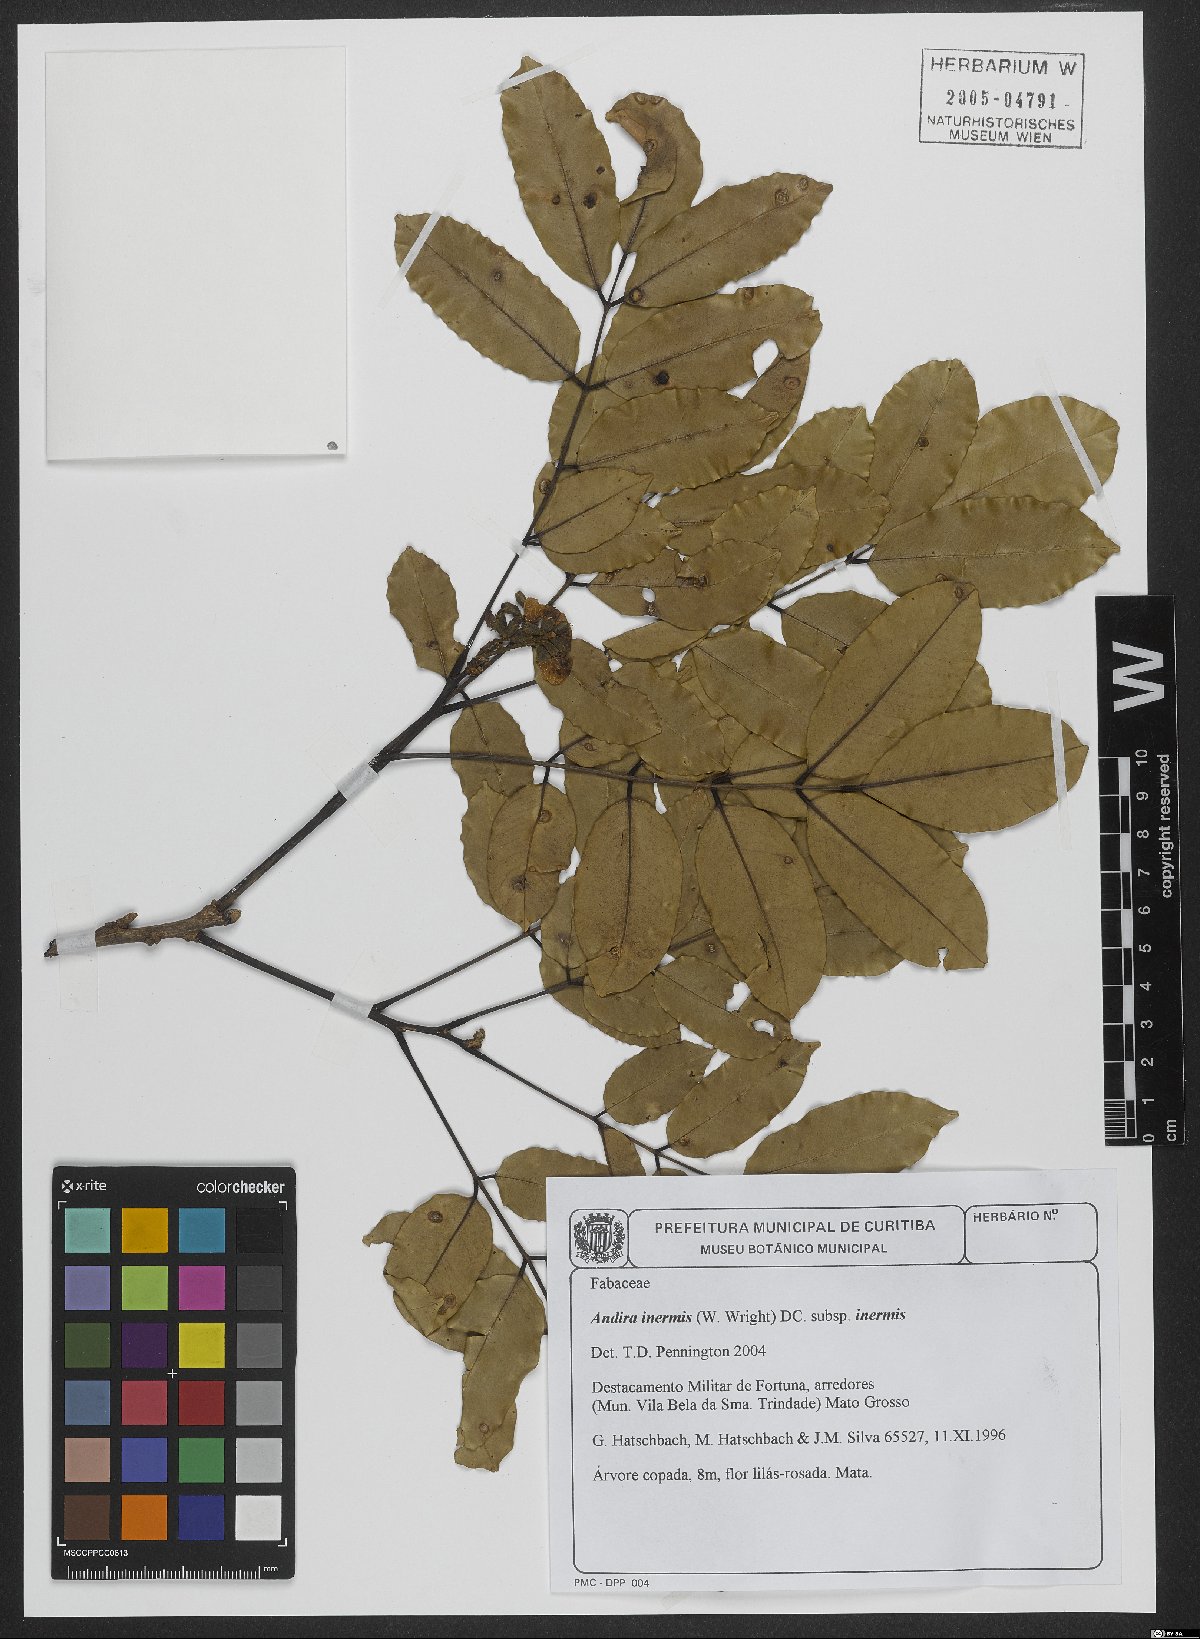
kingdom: Plantae
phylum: Tracheophyta
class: Magnoliopsida
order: Fabales
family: Fabaceae
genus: Andira
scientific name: Andira inermis
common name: Angelin
